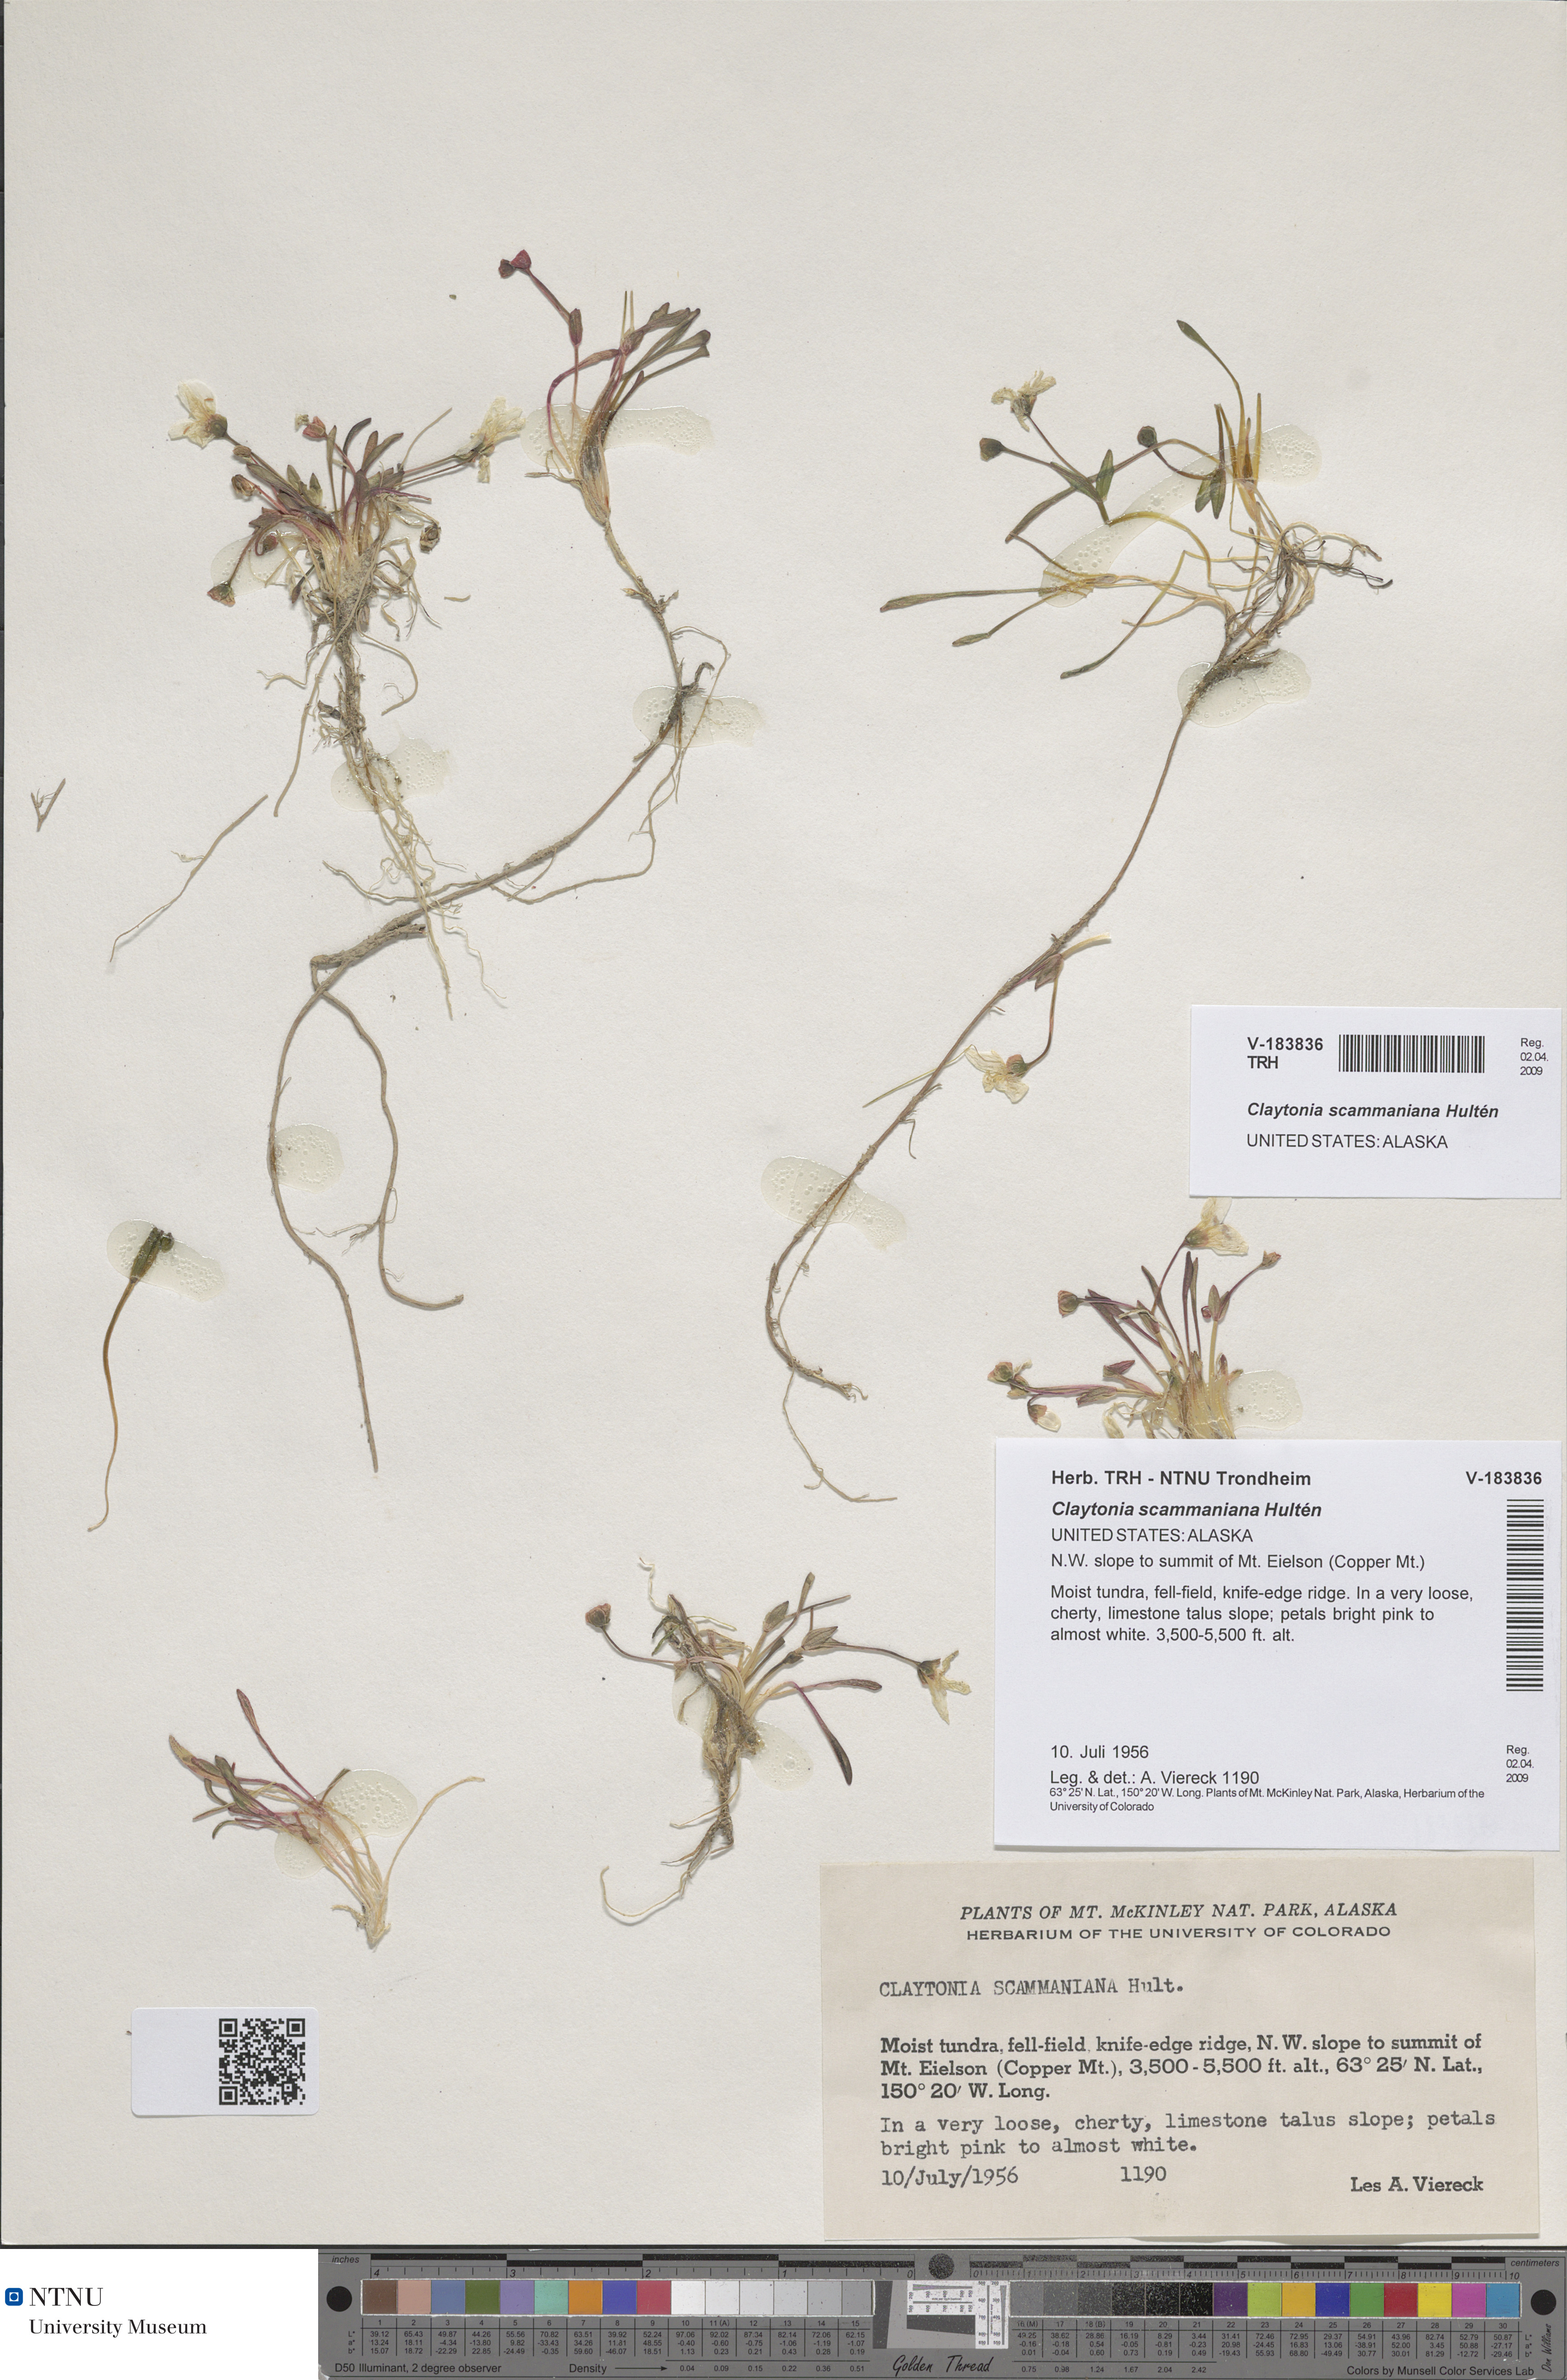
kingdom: Plantae
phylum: Tracheophyta
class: Magnoliopsida
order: Caryophyllales
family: Montiaceae
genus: Claytonia
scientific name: Claytonia scammaniana
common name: Scamman's claytonia
